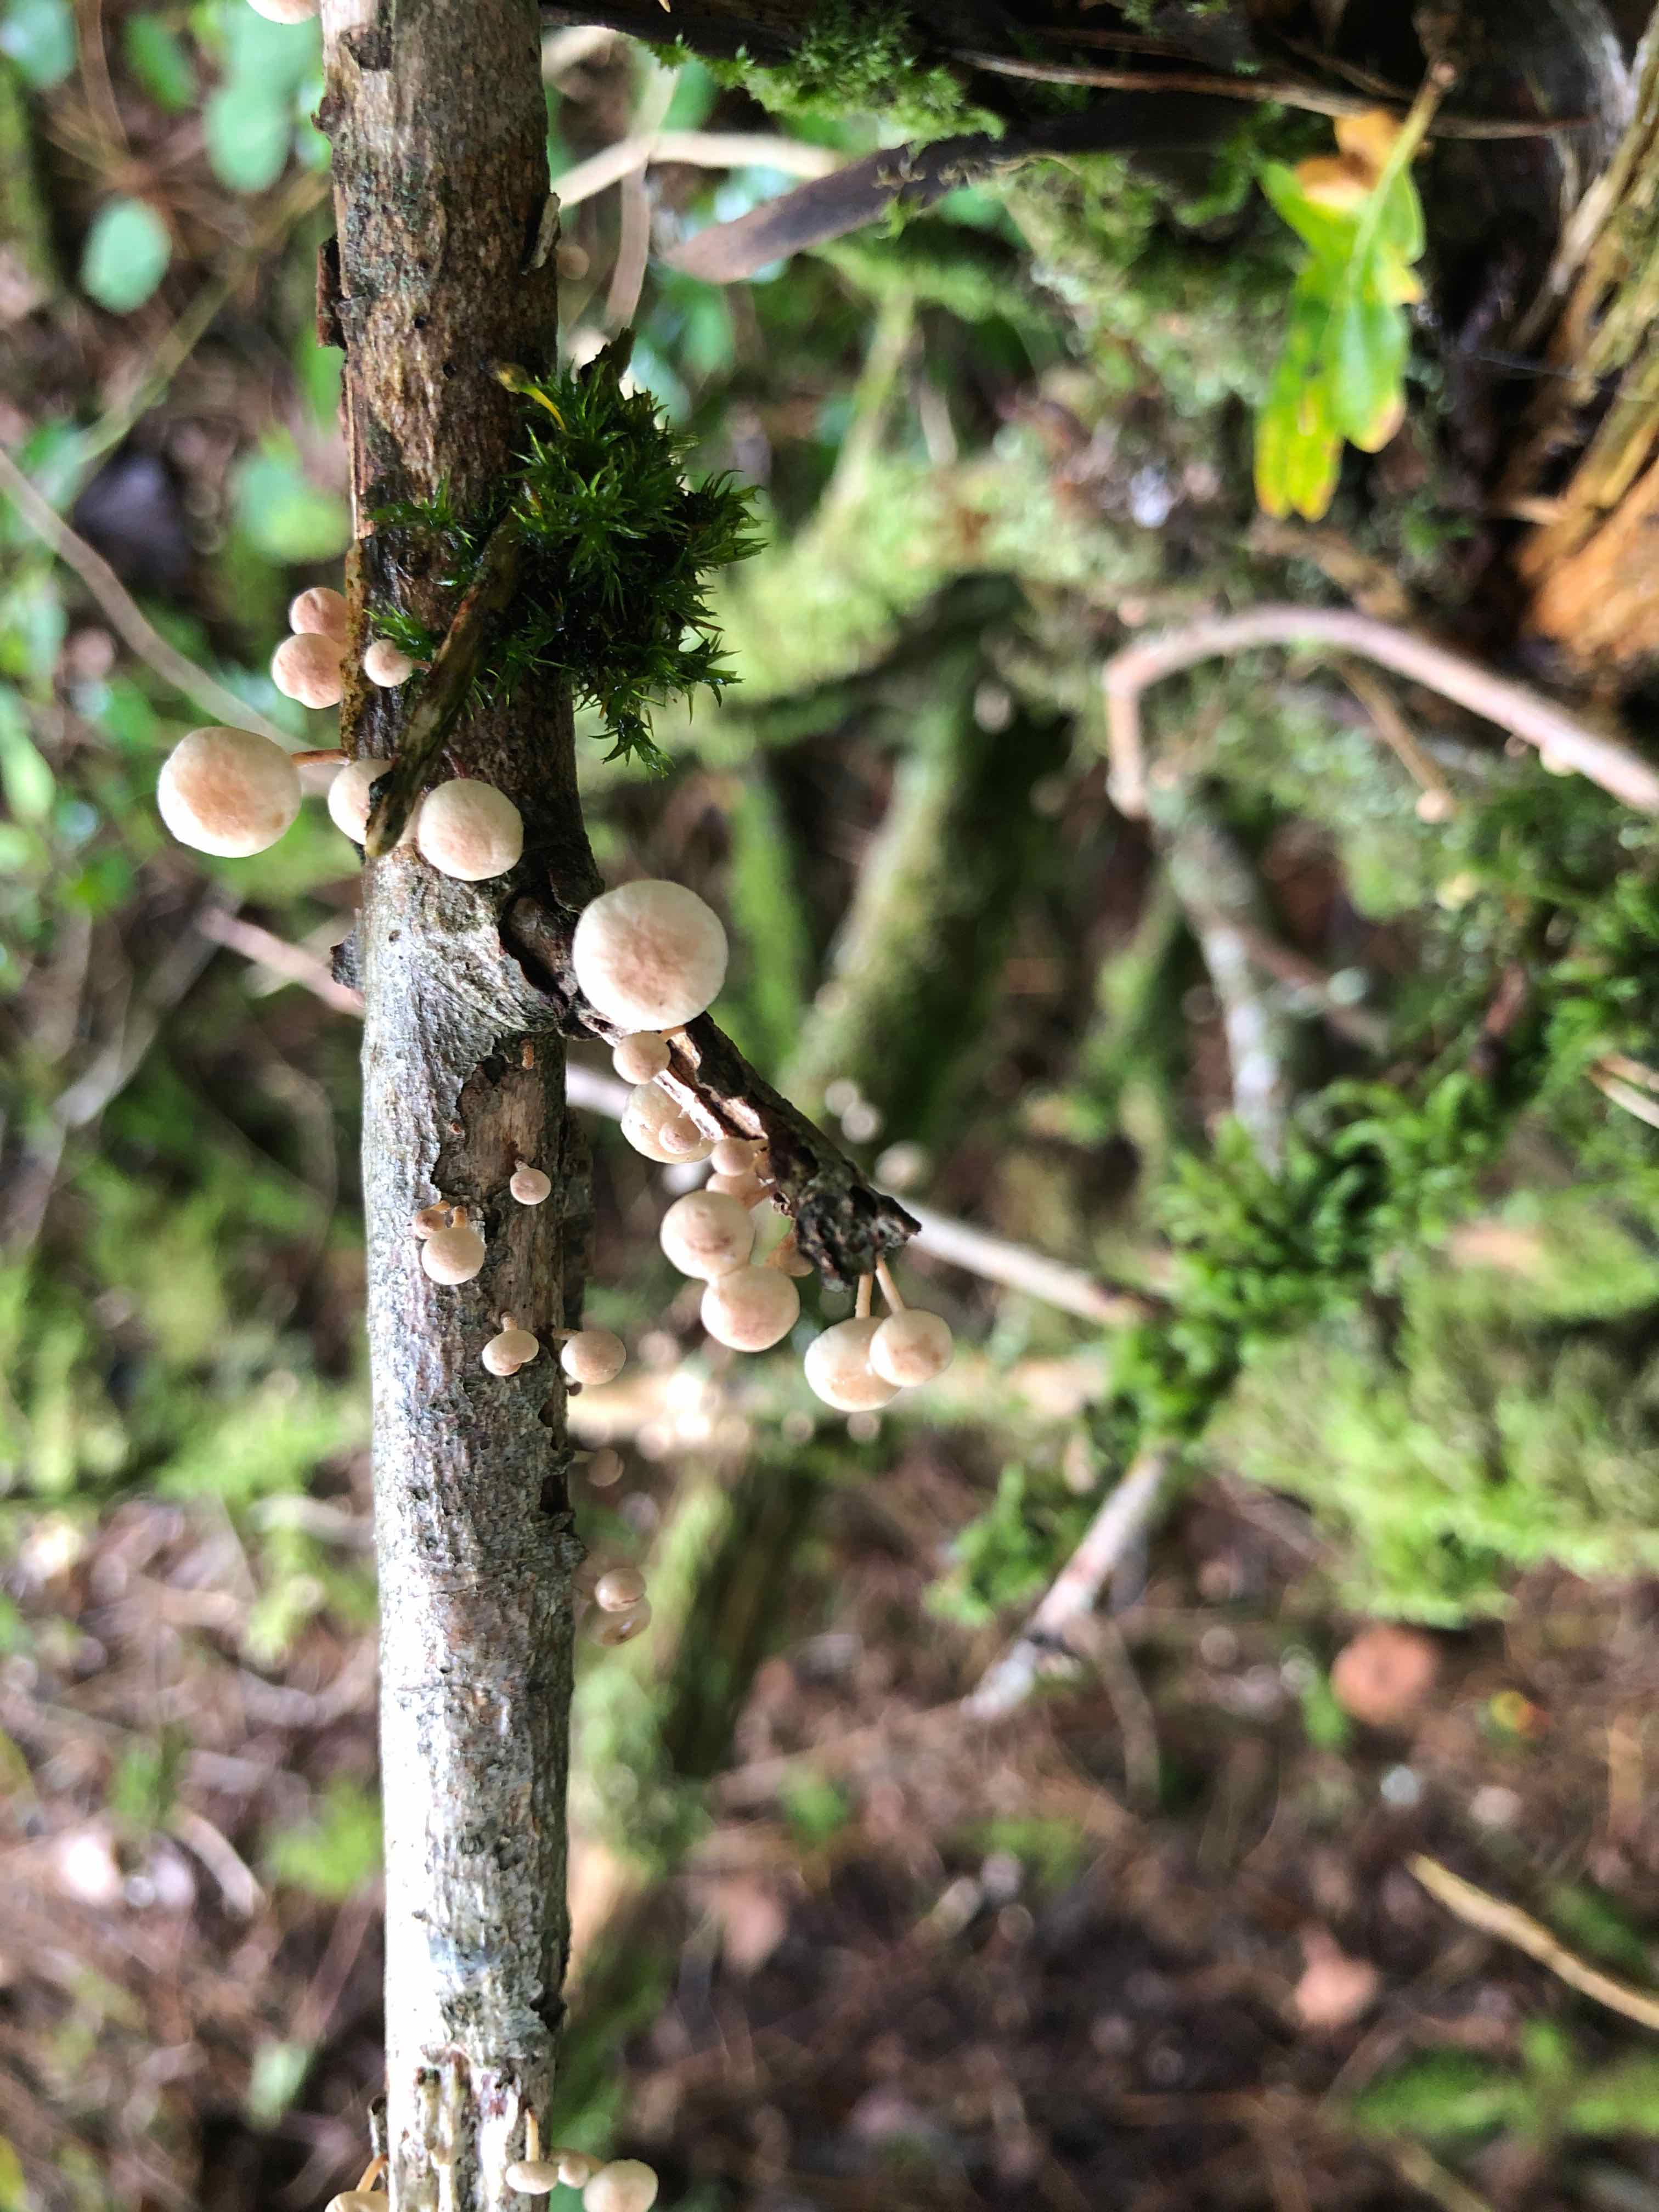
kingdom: Fungi
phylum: Basidiomycota
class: Agaricomycetes
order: Agaricales
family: Omphalotaceae
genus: Collybiopsis
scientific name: Collybiopsis ramealis
